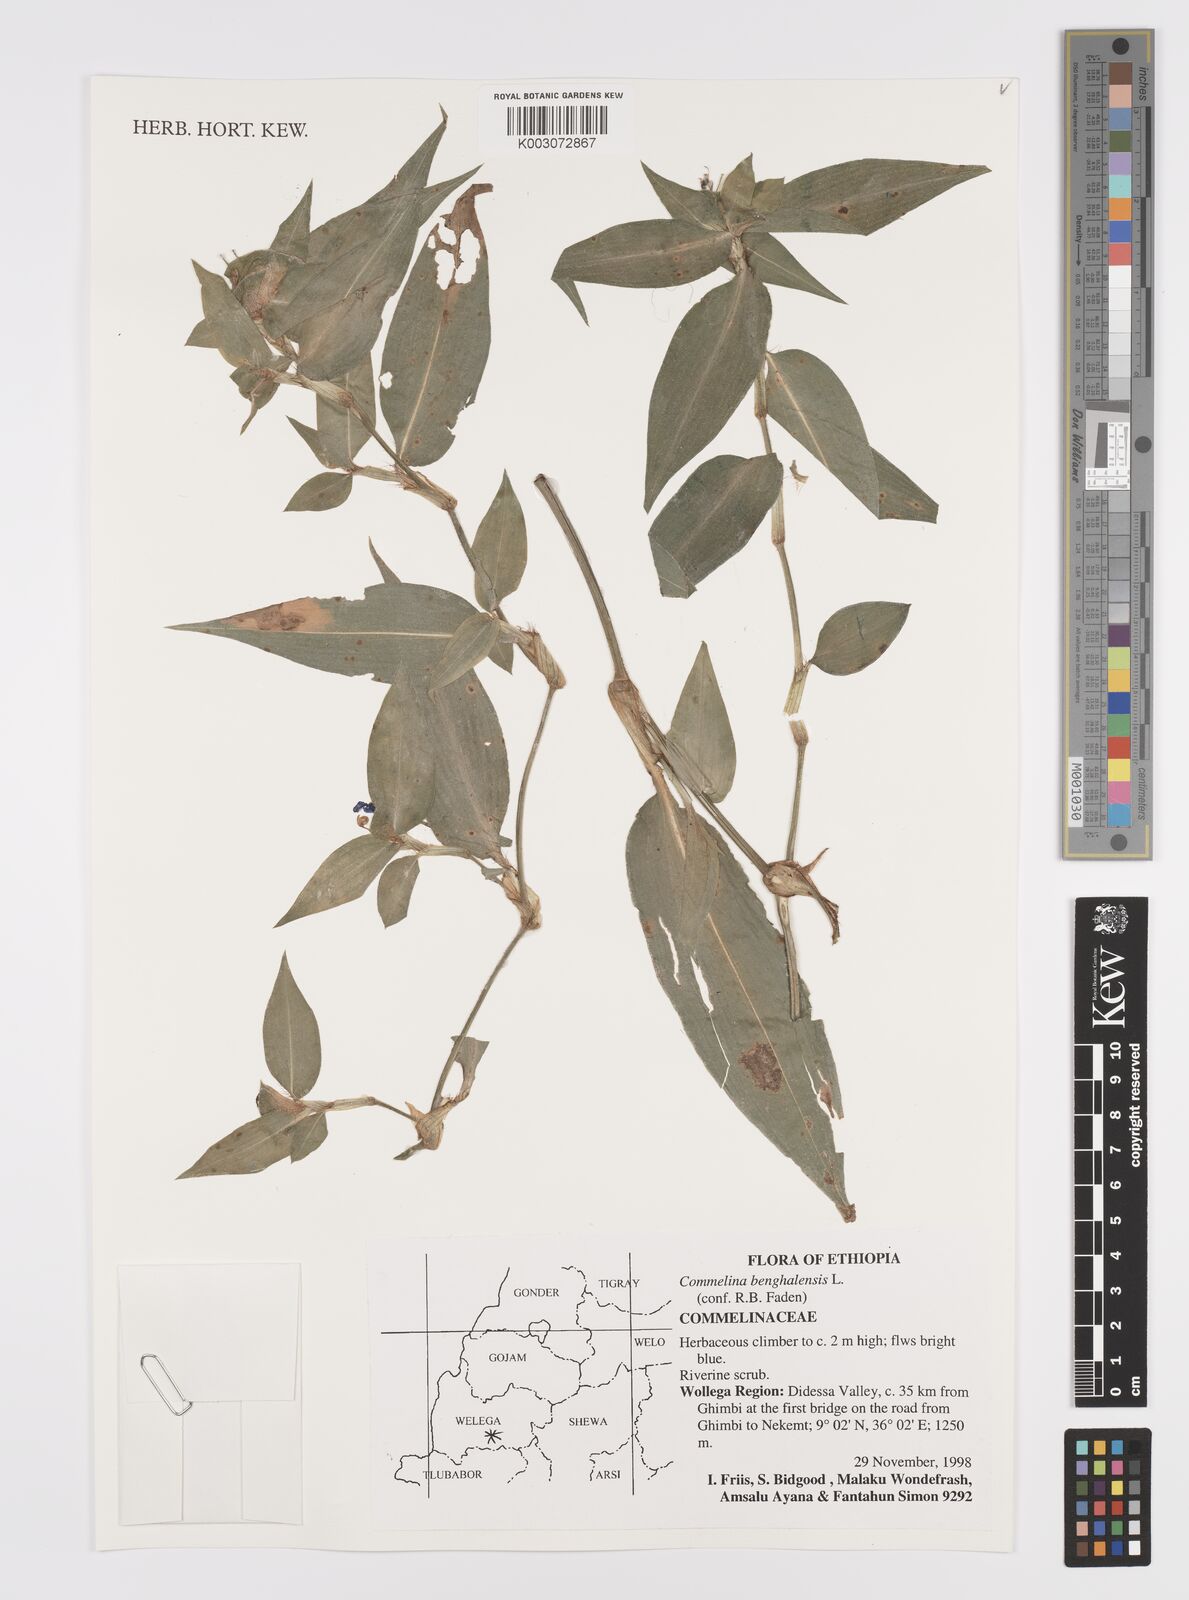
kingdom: Plantae
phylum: Tracheophyta
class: Liliopsida
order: Commelinales
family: Commelinaceae
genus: Commelina
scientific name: Commelina benghalensis
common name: Jio
